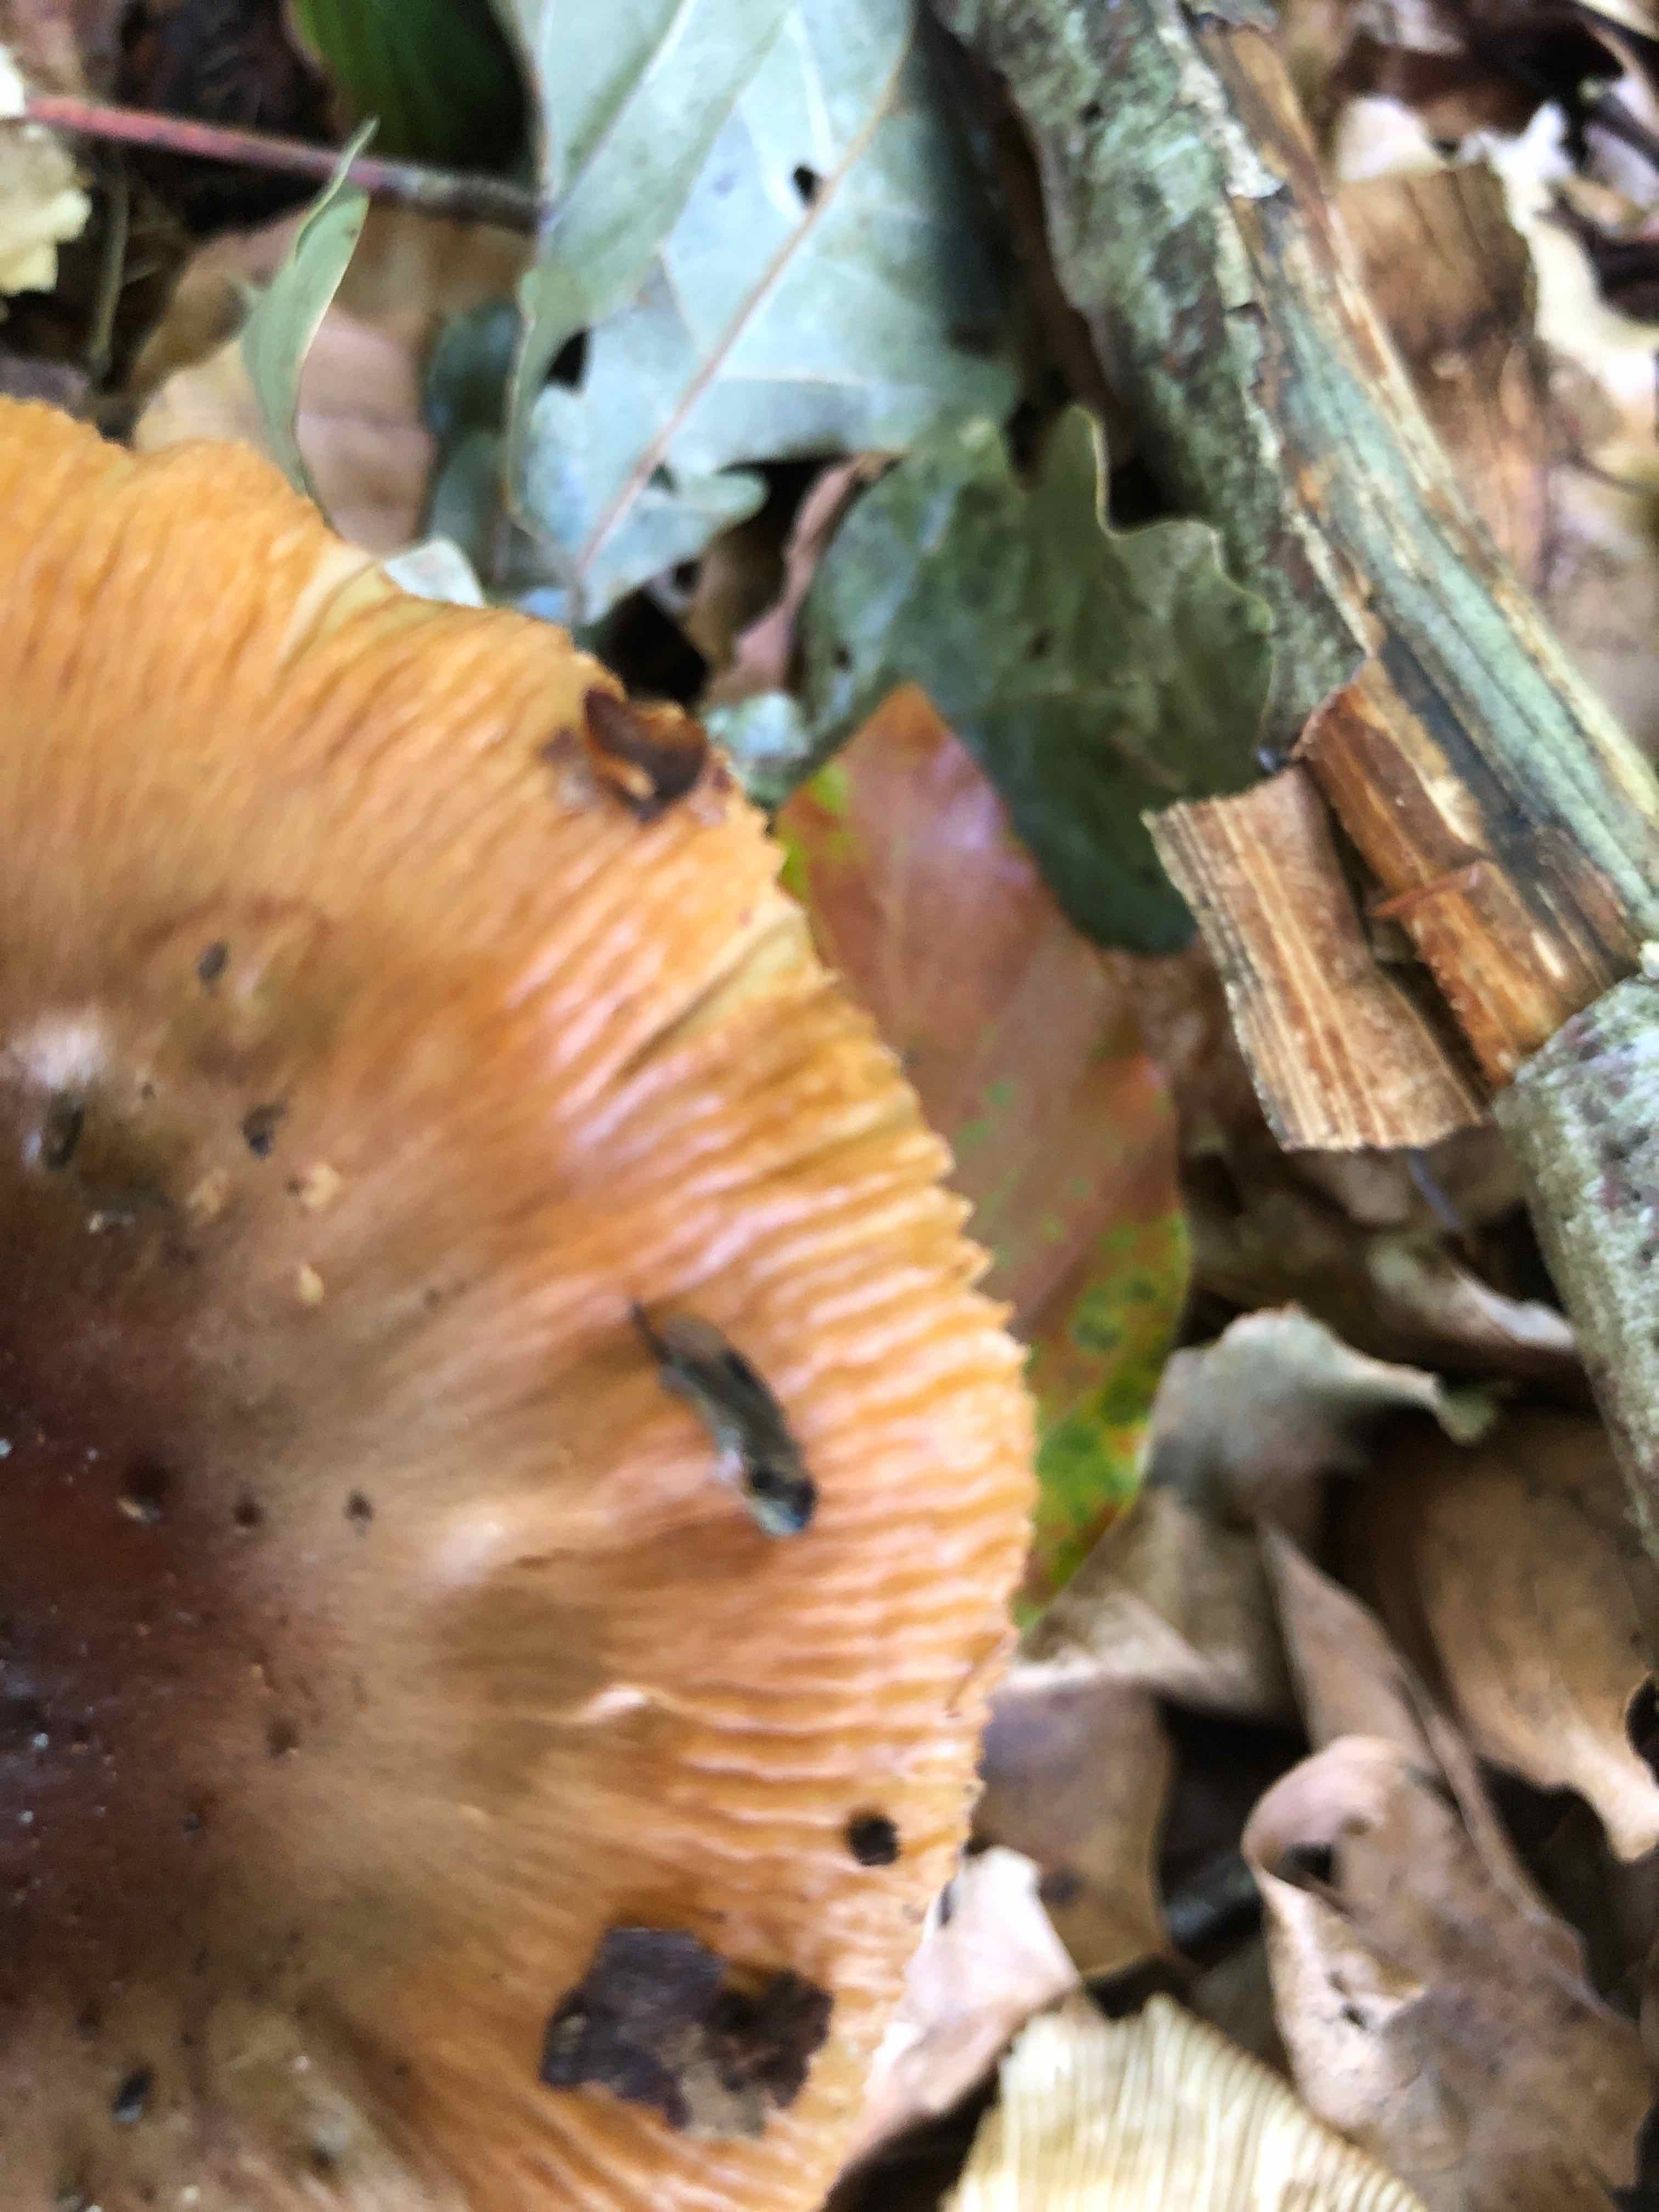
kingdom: Fungi
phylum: Basidiomycota
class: Agaricomycetes
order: Russulales
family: Russulaceae
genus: Russula
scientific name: Russula foetens
